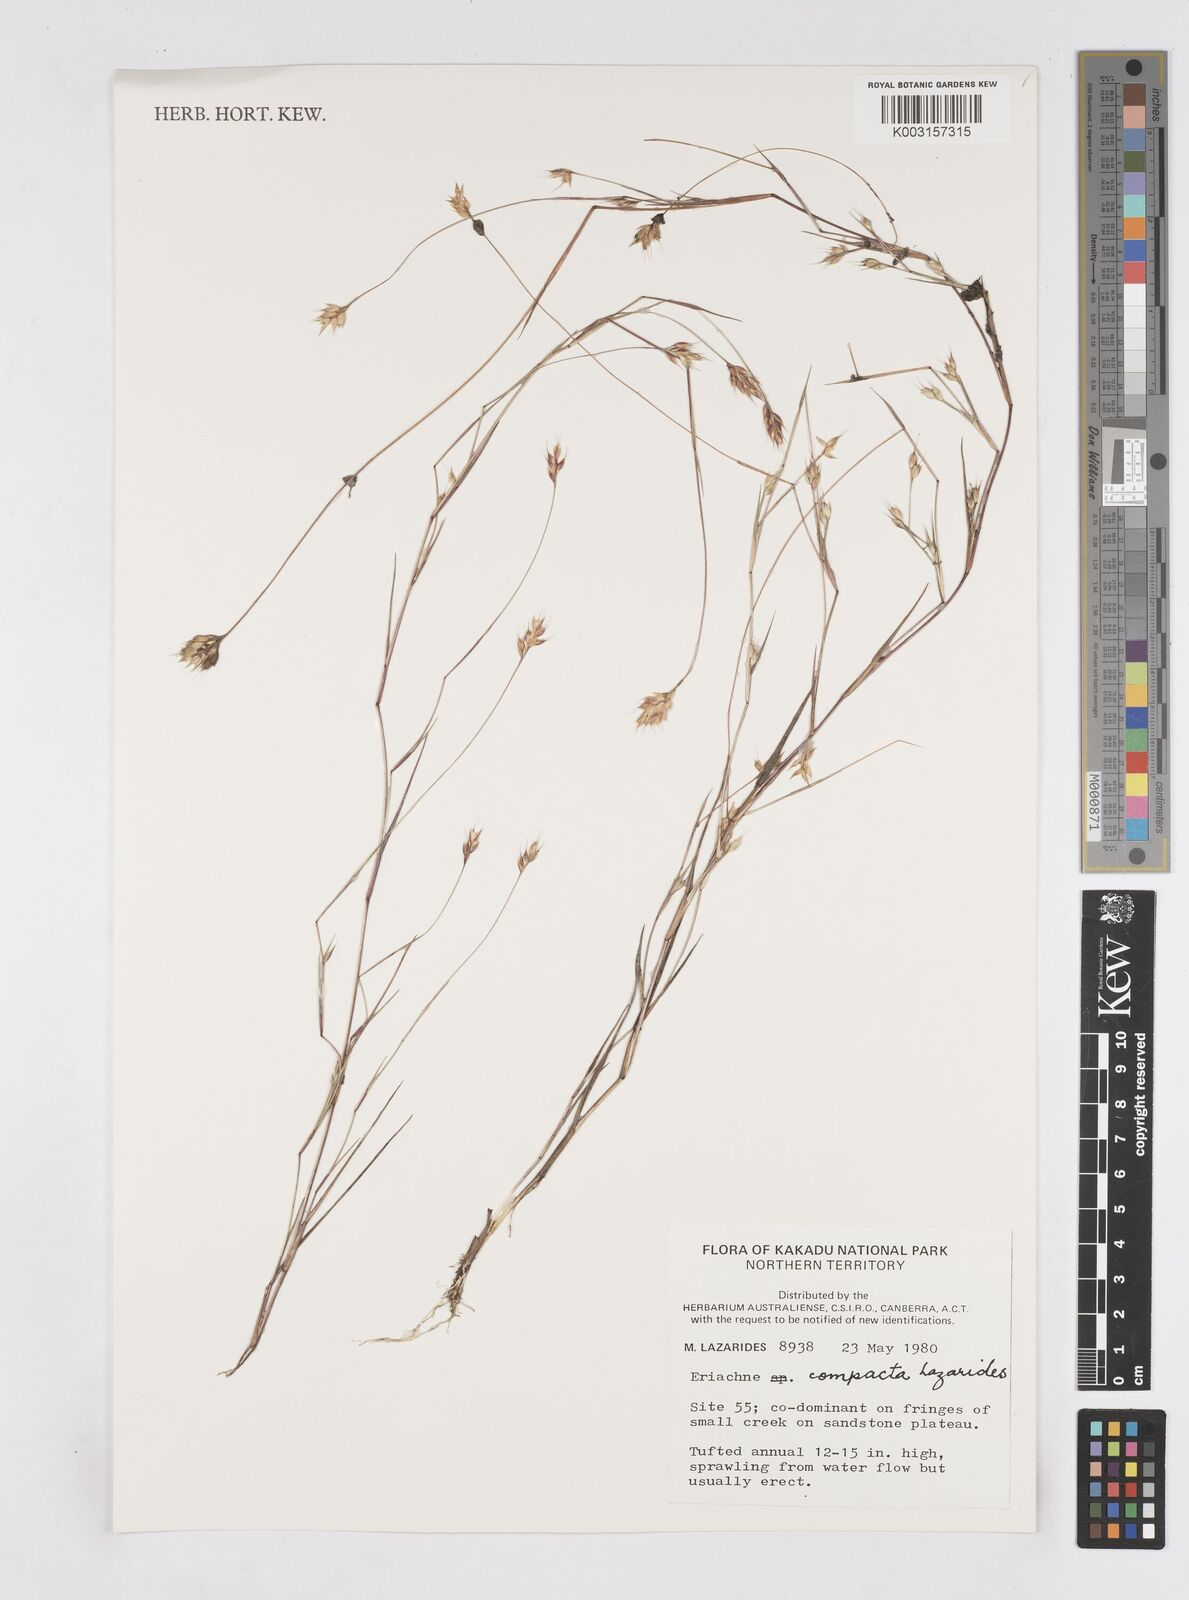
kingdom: Plantae
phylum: Tracheophyta
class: Liliopsida
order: Poales
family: Poaceae
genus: Eriachne
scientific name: Eriachne compacta
